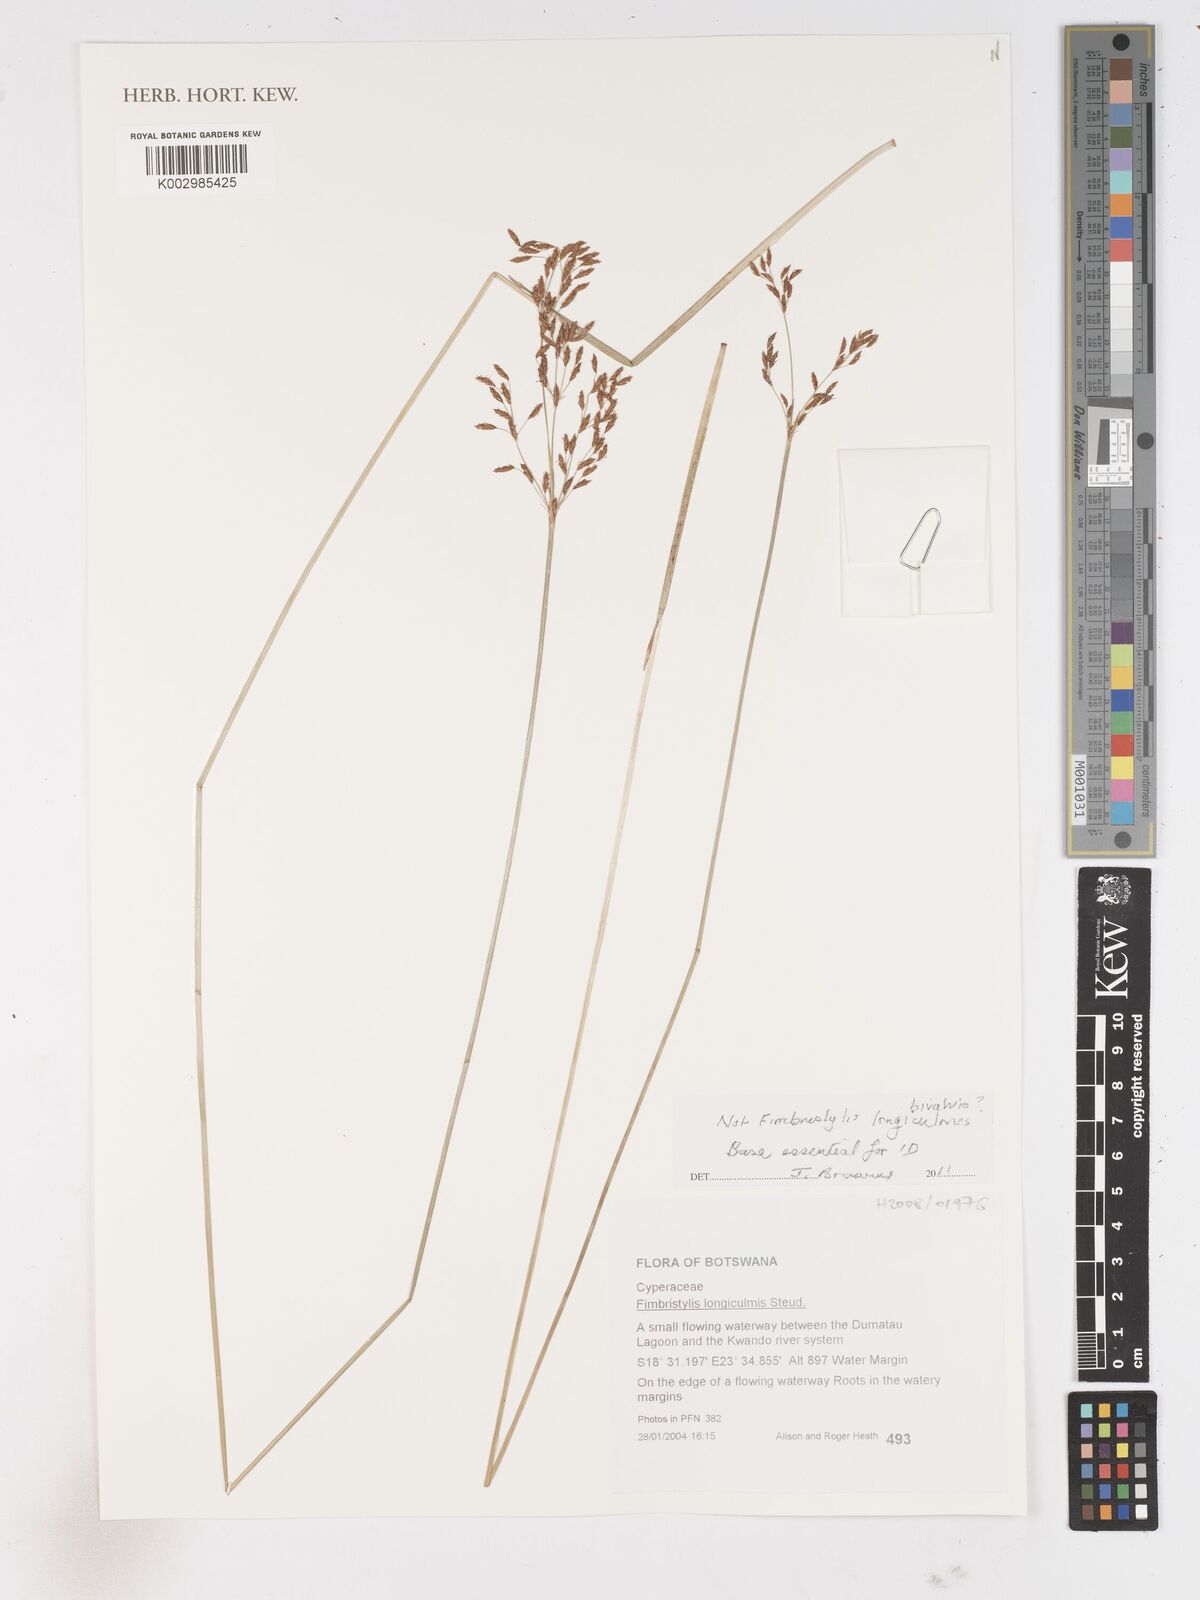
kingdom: Plantae
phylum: Tracheophyta
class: Liliopsida
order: Poales
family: Cyperaceae
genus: Fimbristylis
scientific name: Fimbristylis
